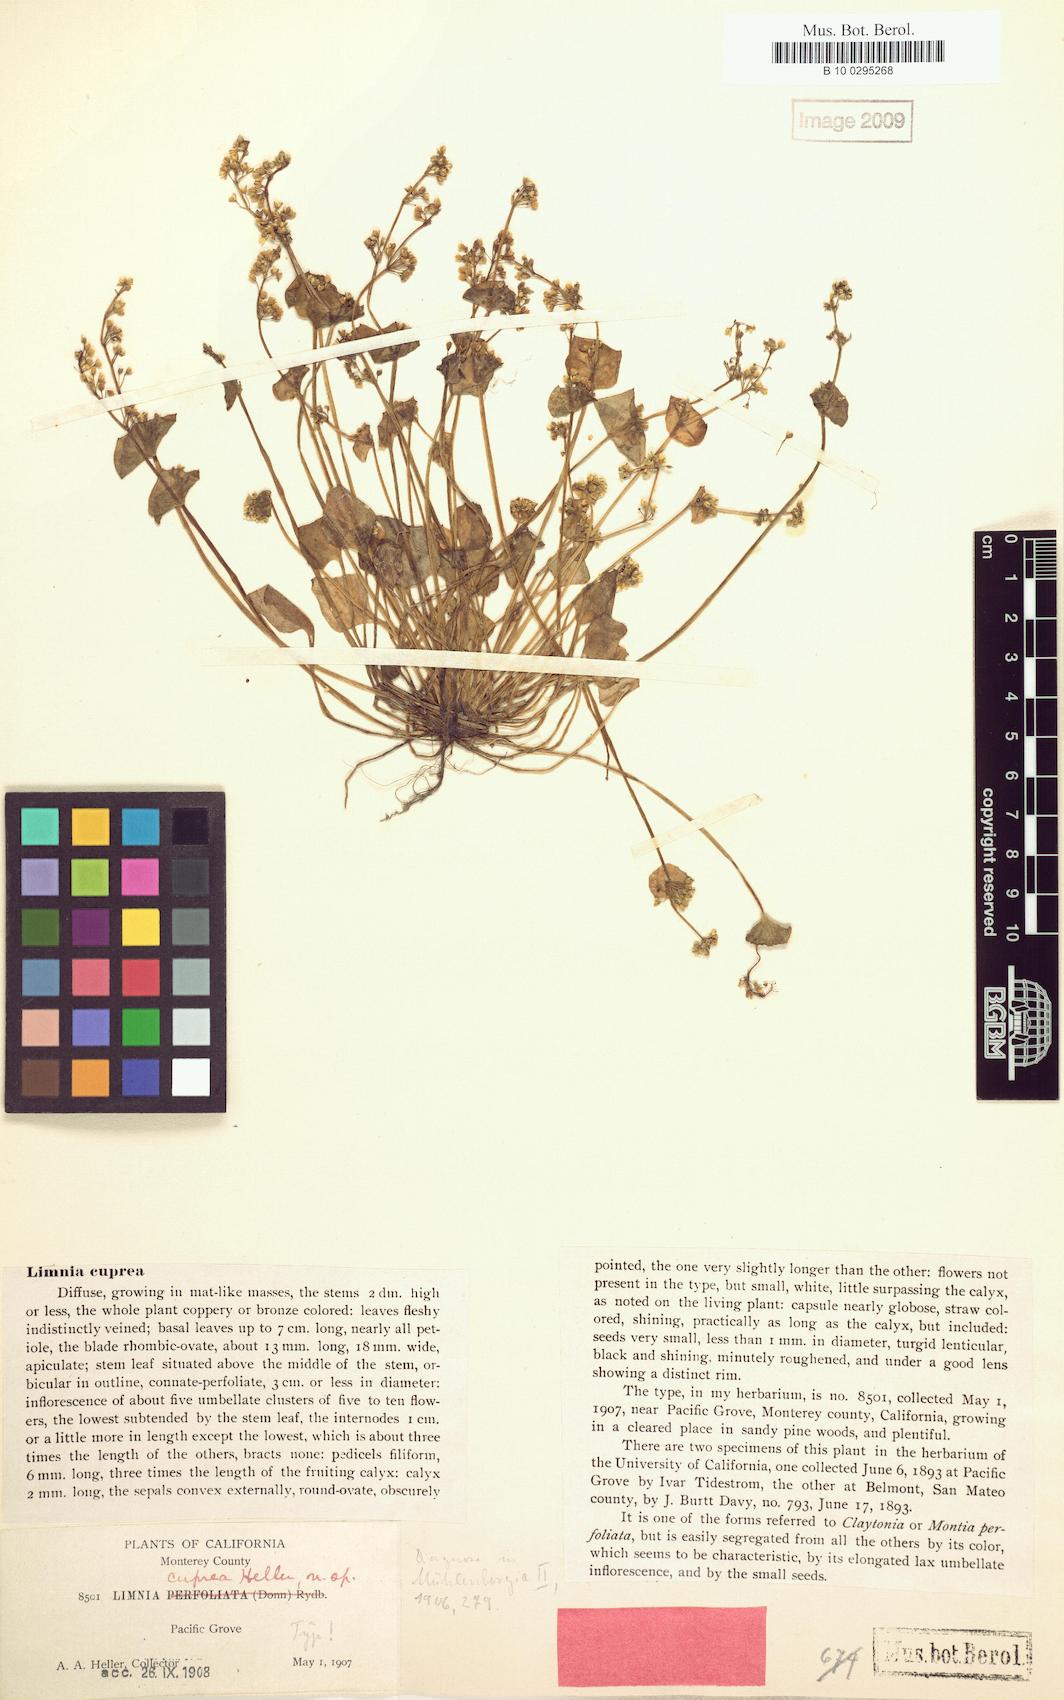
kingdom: Plantae
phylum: Tracheophyta
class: Magnoliopsida
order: Caryophyllales
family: Montiaceae
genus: Claytonia
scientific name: Claytonia perfoliata
